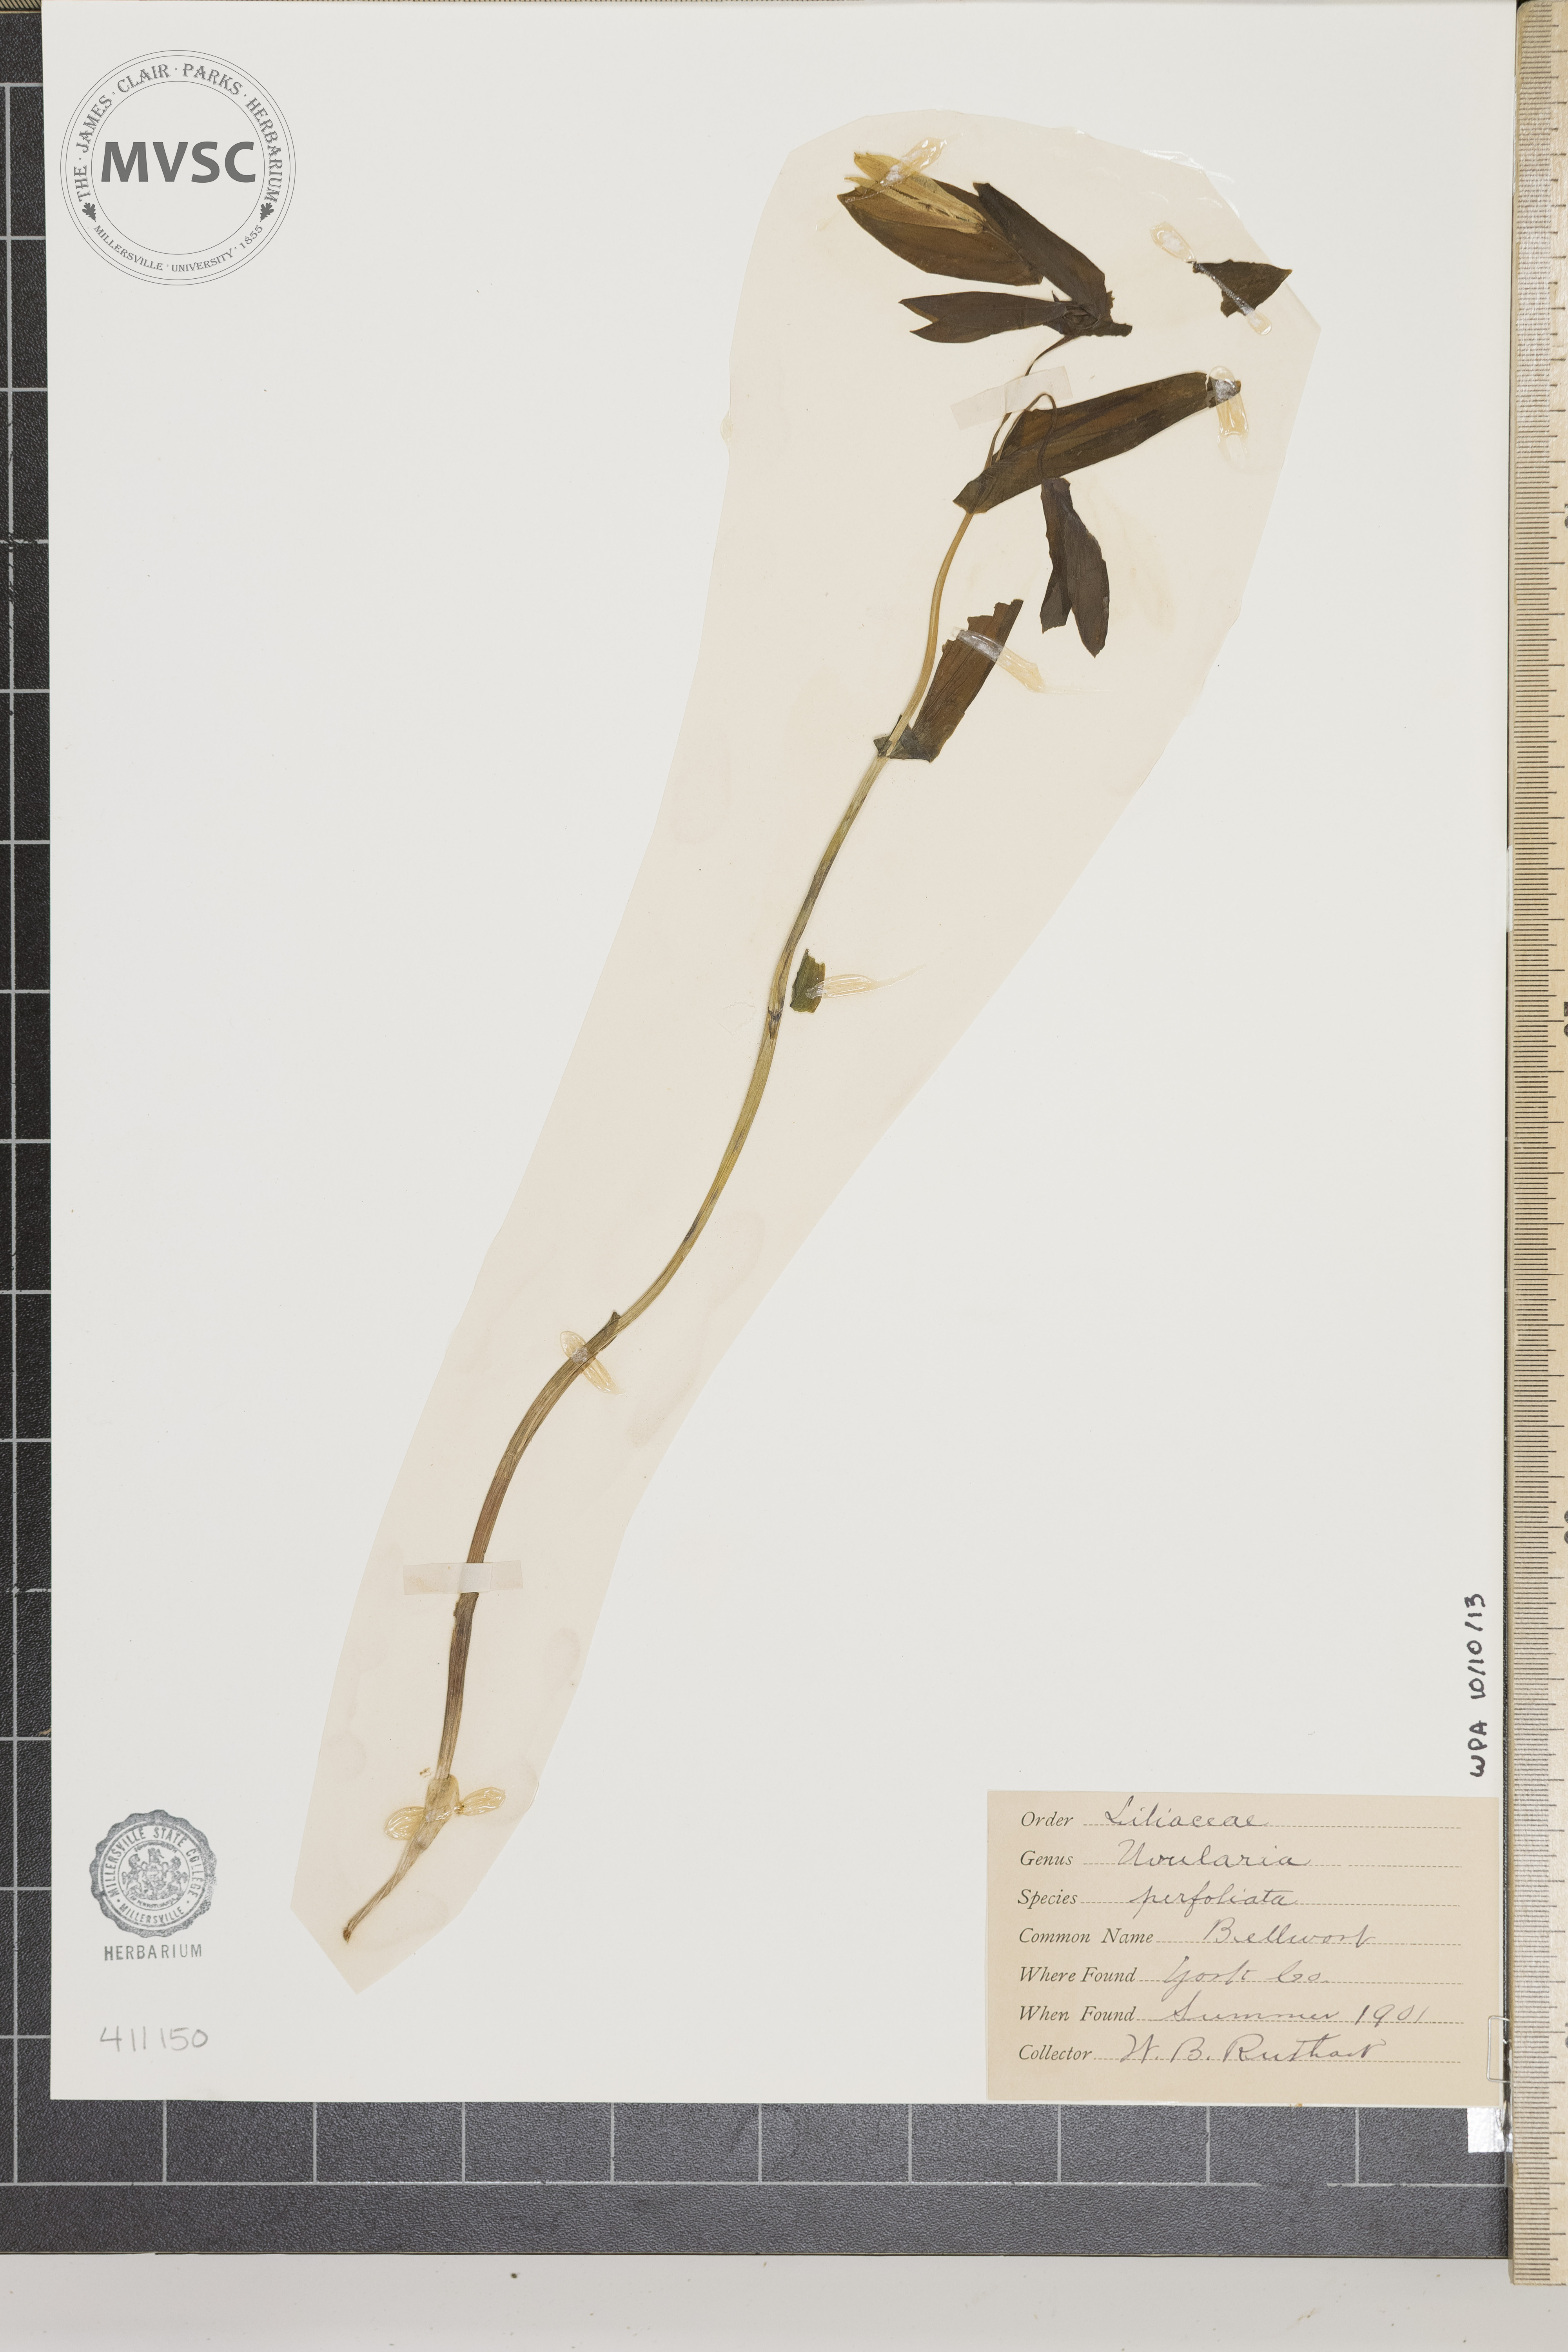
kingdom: Plantae
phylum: Tracheophyta
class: Liliopsida
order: Liliales
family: Colchicaceae
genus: Uvularia
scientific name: Uvularia perfoliata
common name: Perfoliate bellwort
